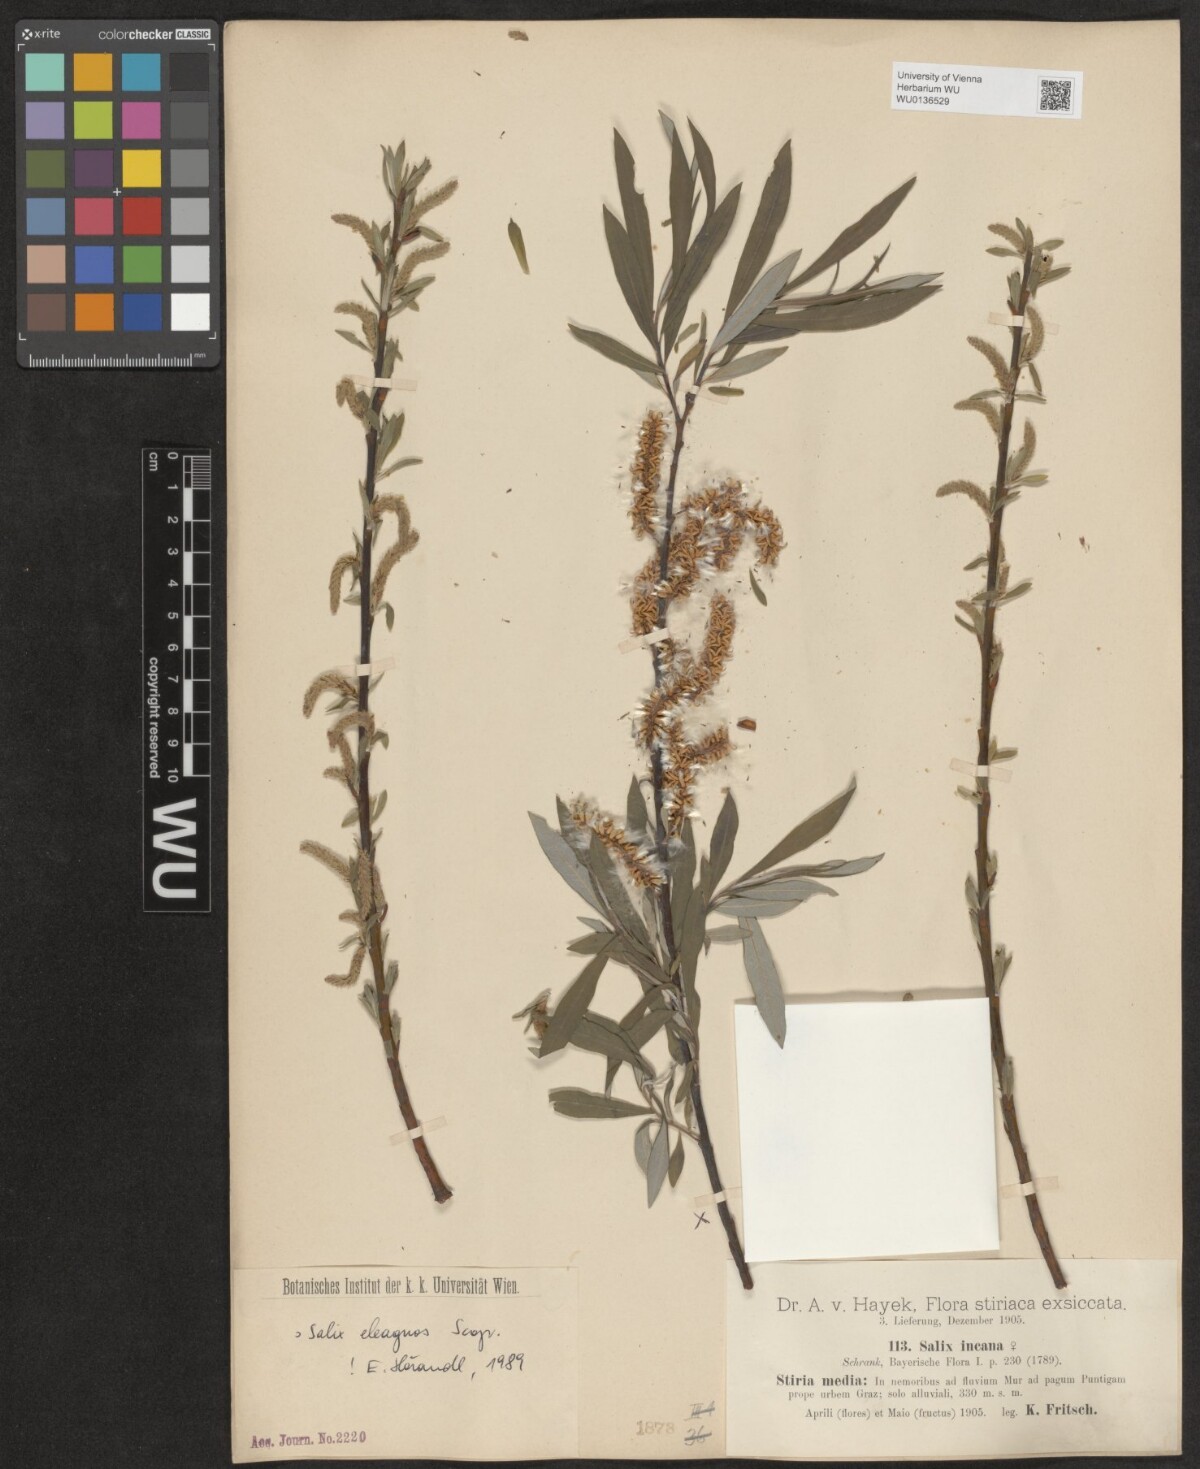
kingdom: Plantae
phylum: Tracheophyta
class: Magnoliopsida
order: Malpighiales
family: Salicaceae
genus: Salix
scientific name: Salix eleagnos
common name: Elaeagnus willow
